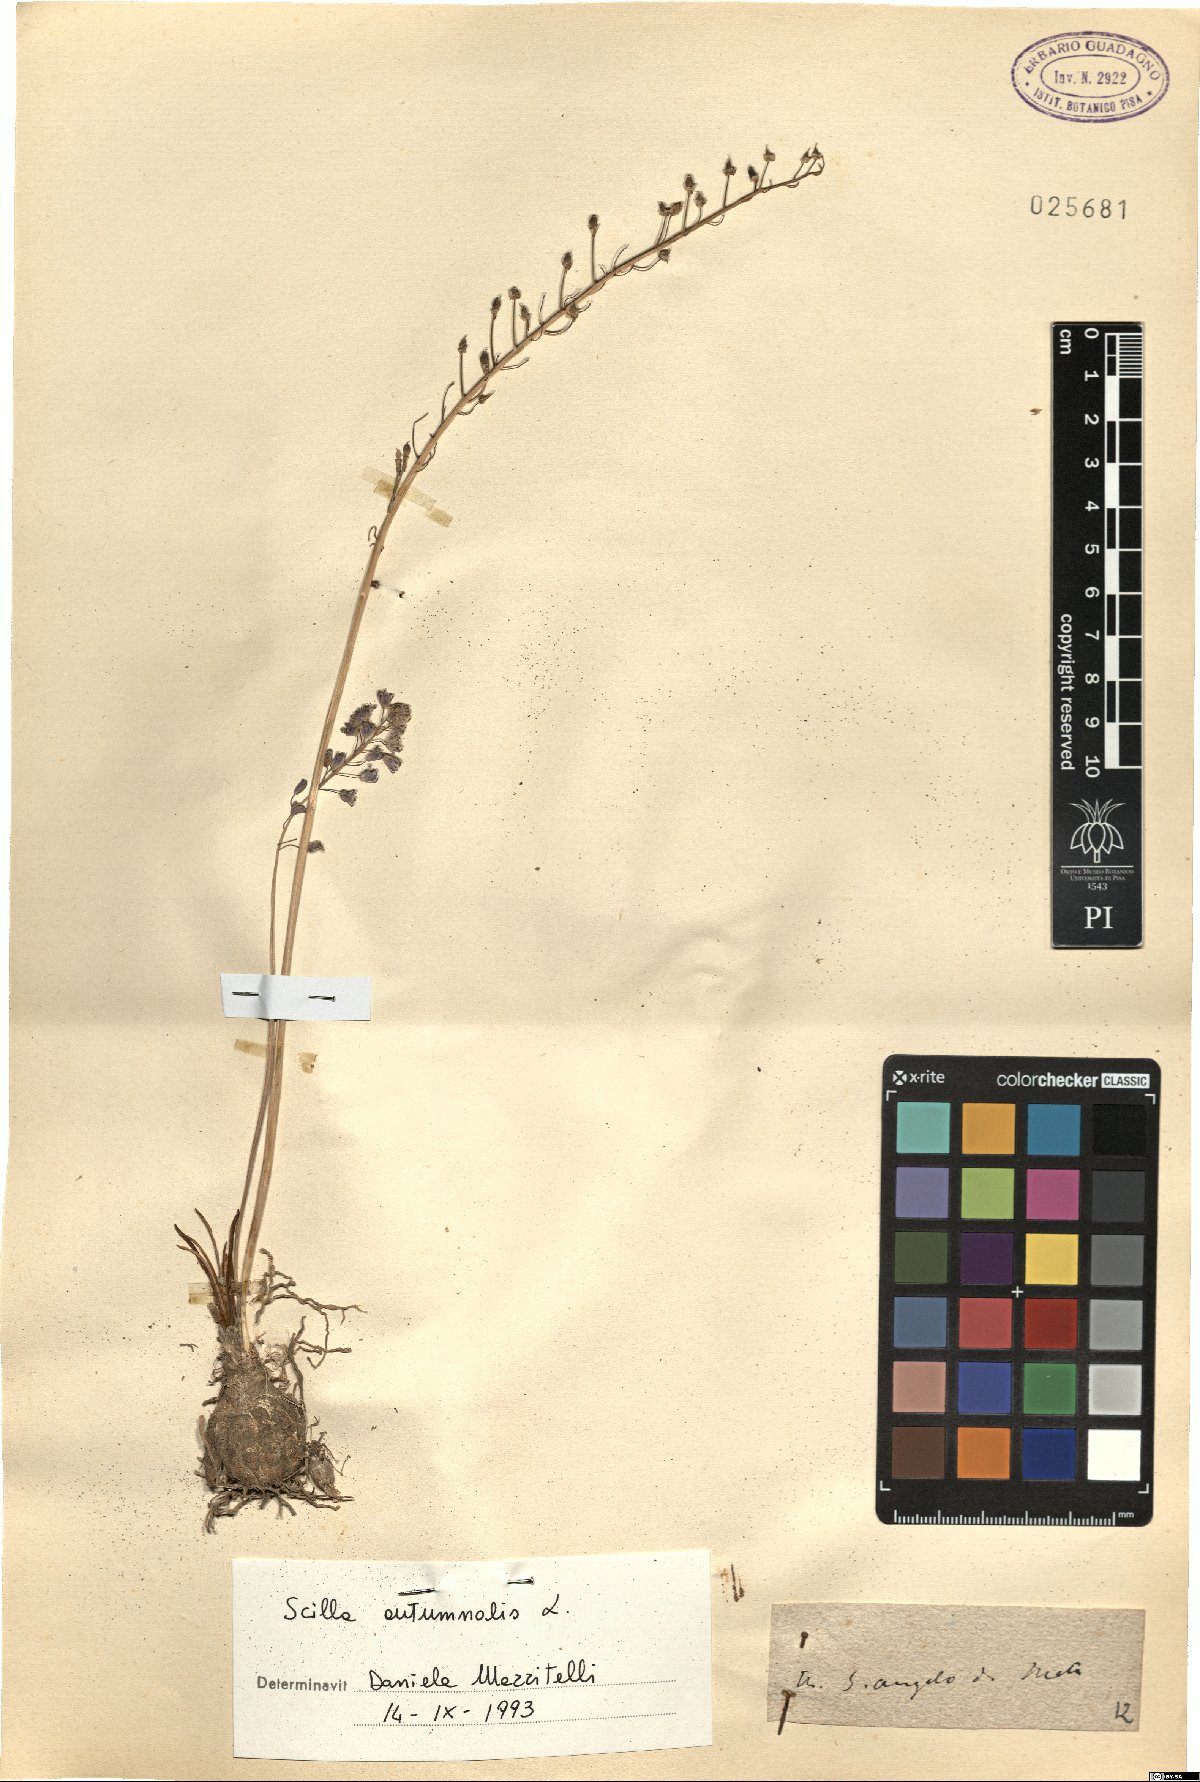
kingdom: Plantae
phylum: Tracheophyta
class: Liliopsida
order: Asparagales
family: Asparagaceae
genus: Prospero
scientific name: Prospero autumnale
